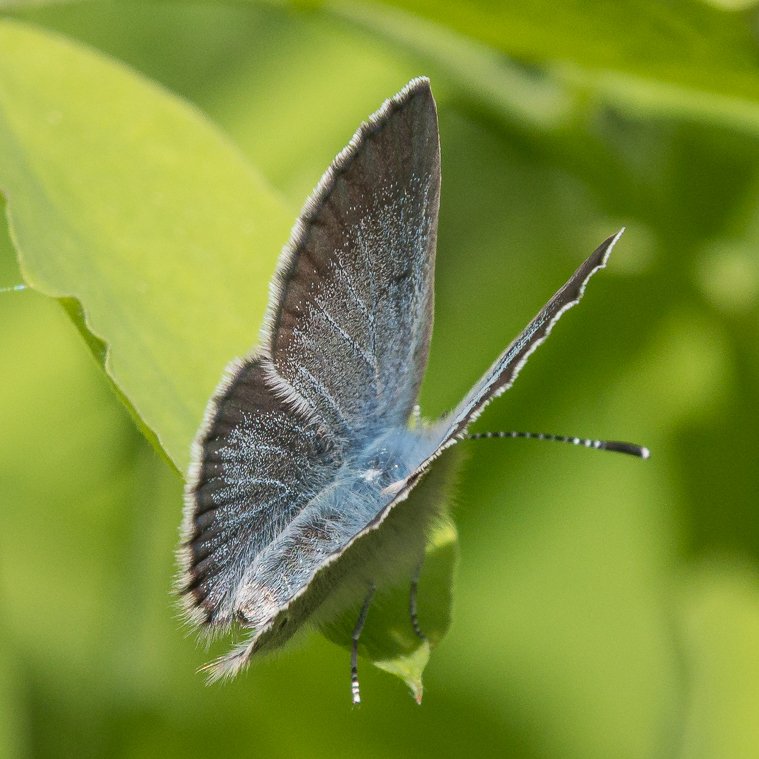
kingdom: Animalia
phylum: Arthropoda
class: Insecta
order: Lepidoptera
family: Lycaenidae
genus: Plebejus
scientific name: Plebejus saepiolus
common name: Greenish Blue
